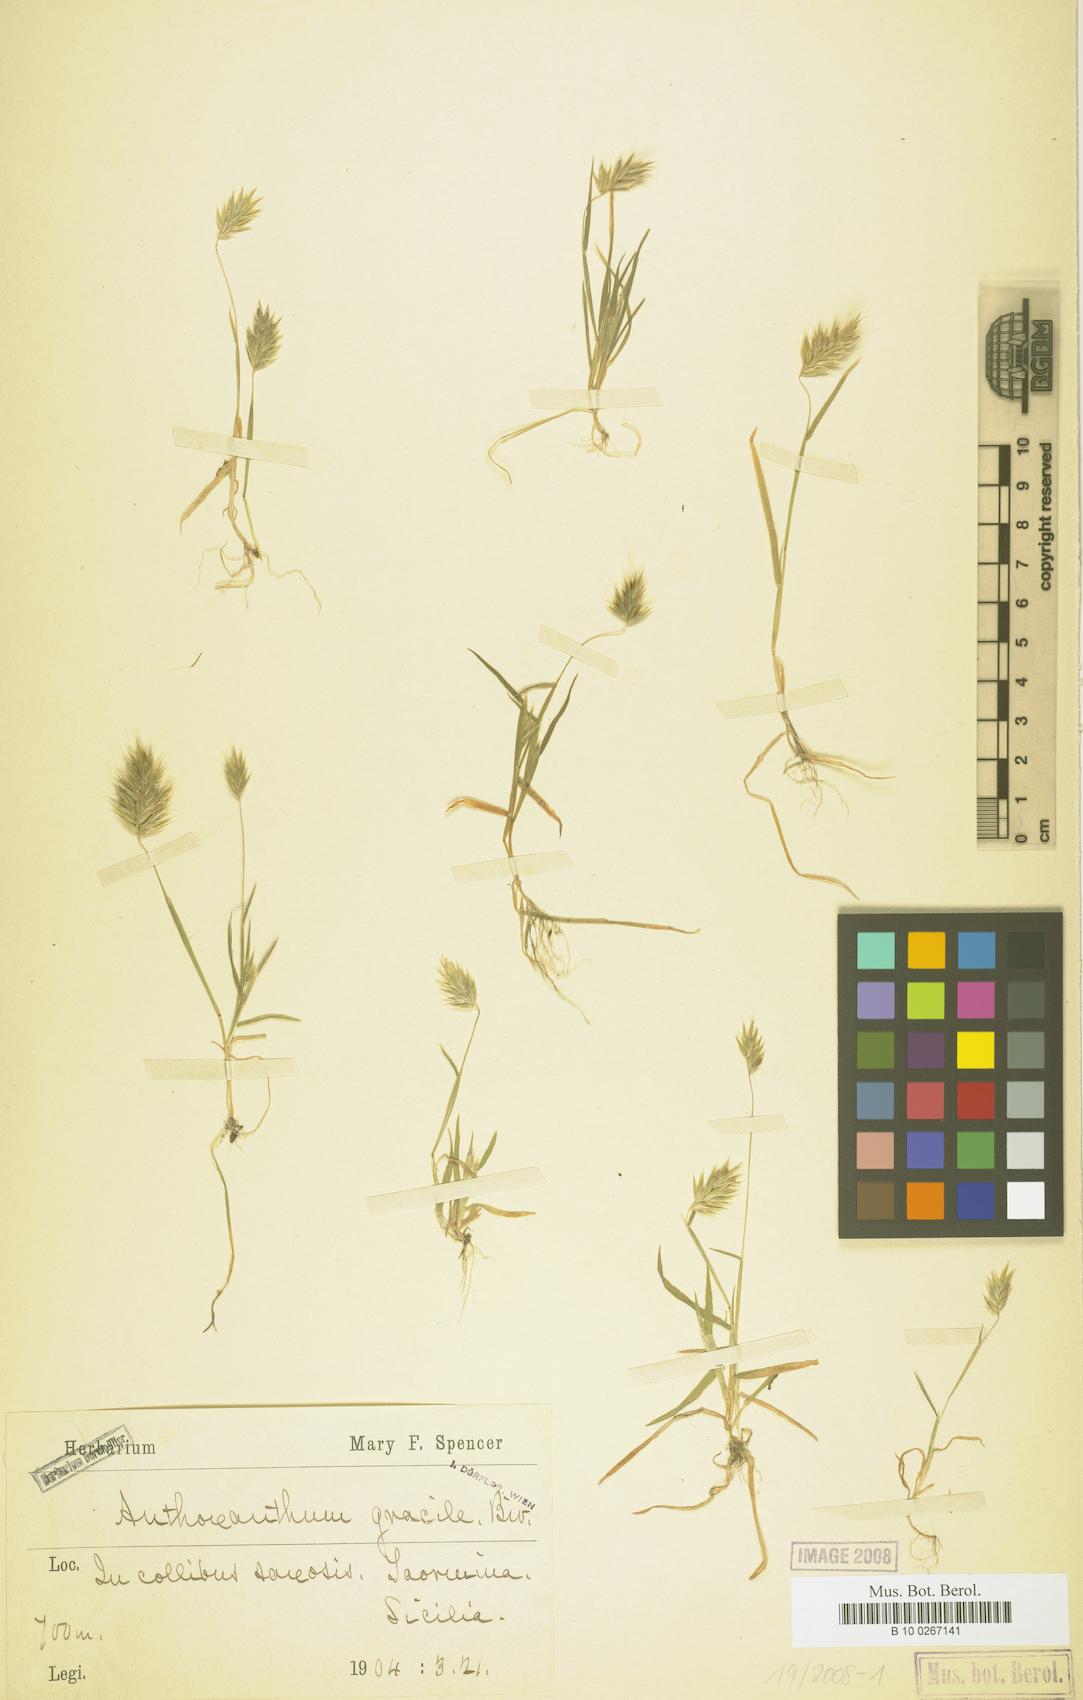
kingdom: Plantae
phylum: Tracheophyta
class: Liliopsida
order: Poales
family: Poaceae
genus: Anthoxanthum
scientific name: Anthoxanthum gracile
